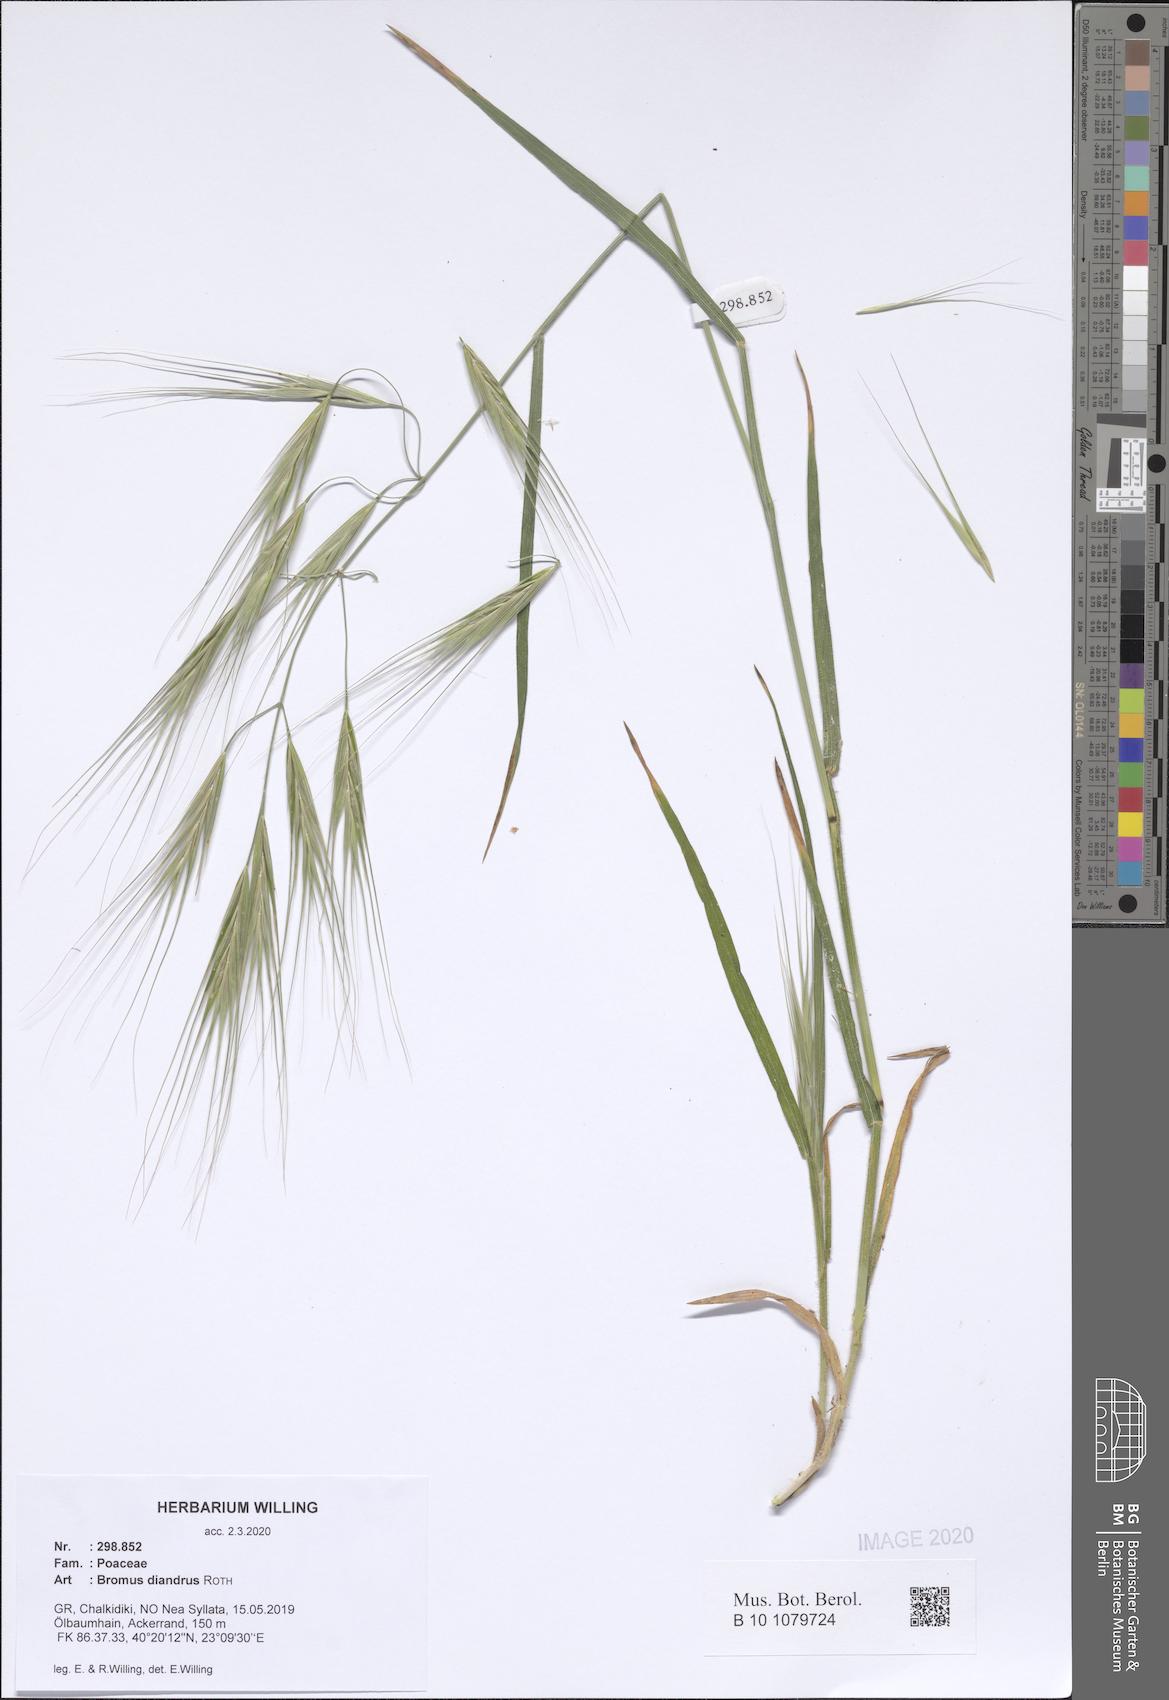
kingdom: Plantae
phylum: Tracheophyta
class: Liliopsida
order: Poales
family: Poaceae
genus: Bromus
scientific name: Bromus diandrus
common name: Ripgut brome
